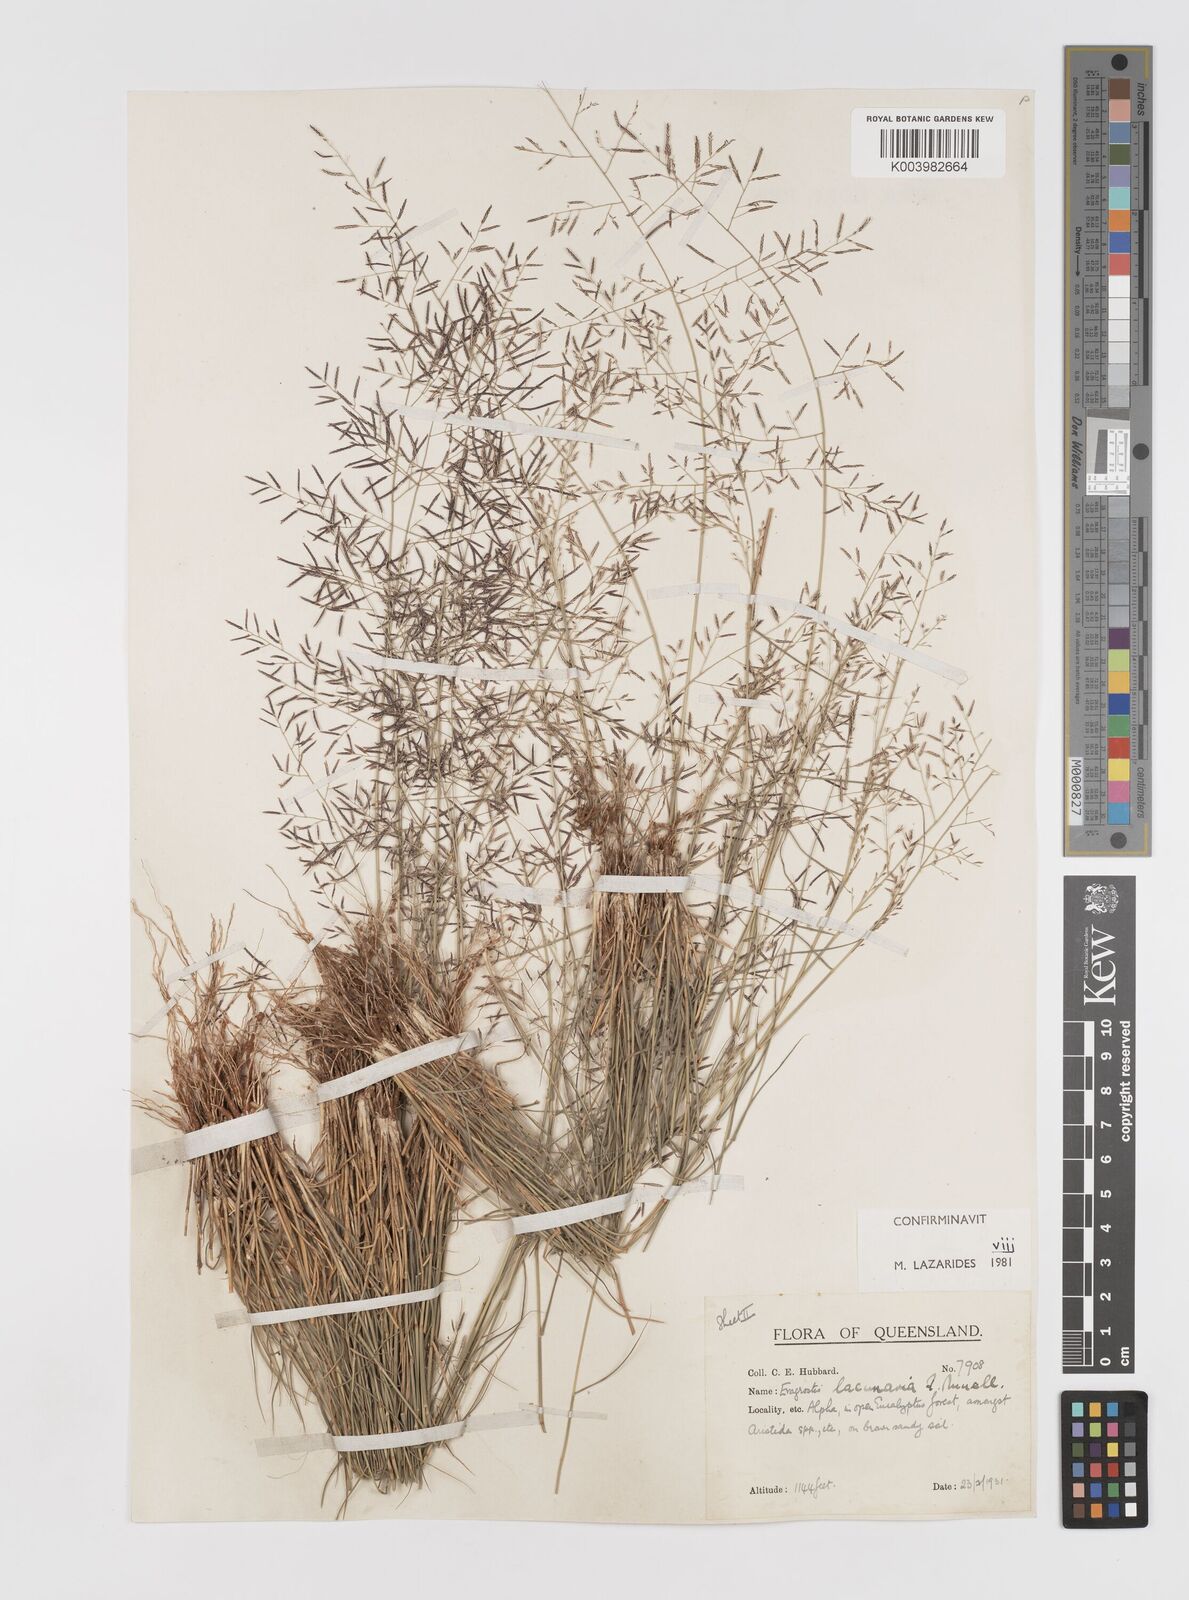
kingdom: Plantae
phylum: Tracheophyta
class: Liliopsida
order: Poales
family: Poaceae
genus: Eragrostis
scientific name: Eragrostis lacunaria
